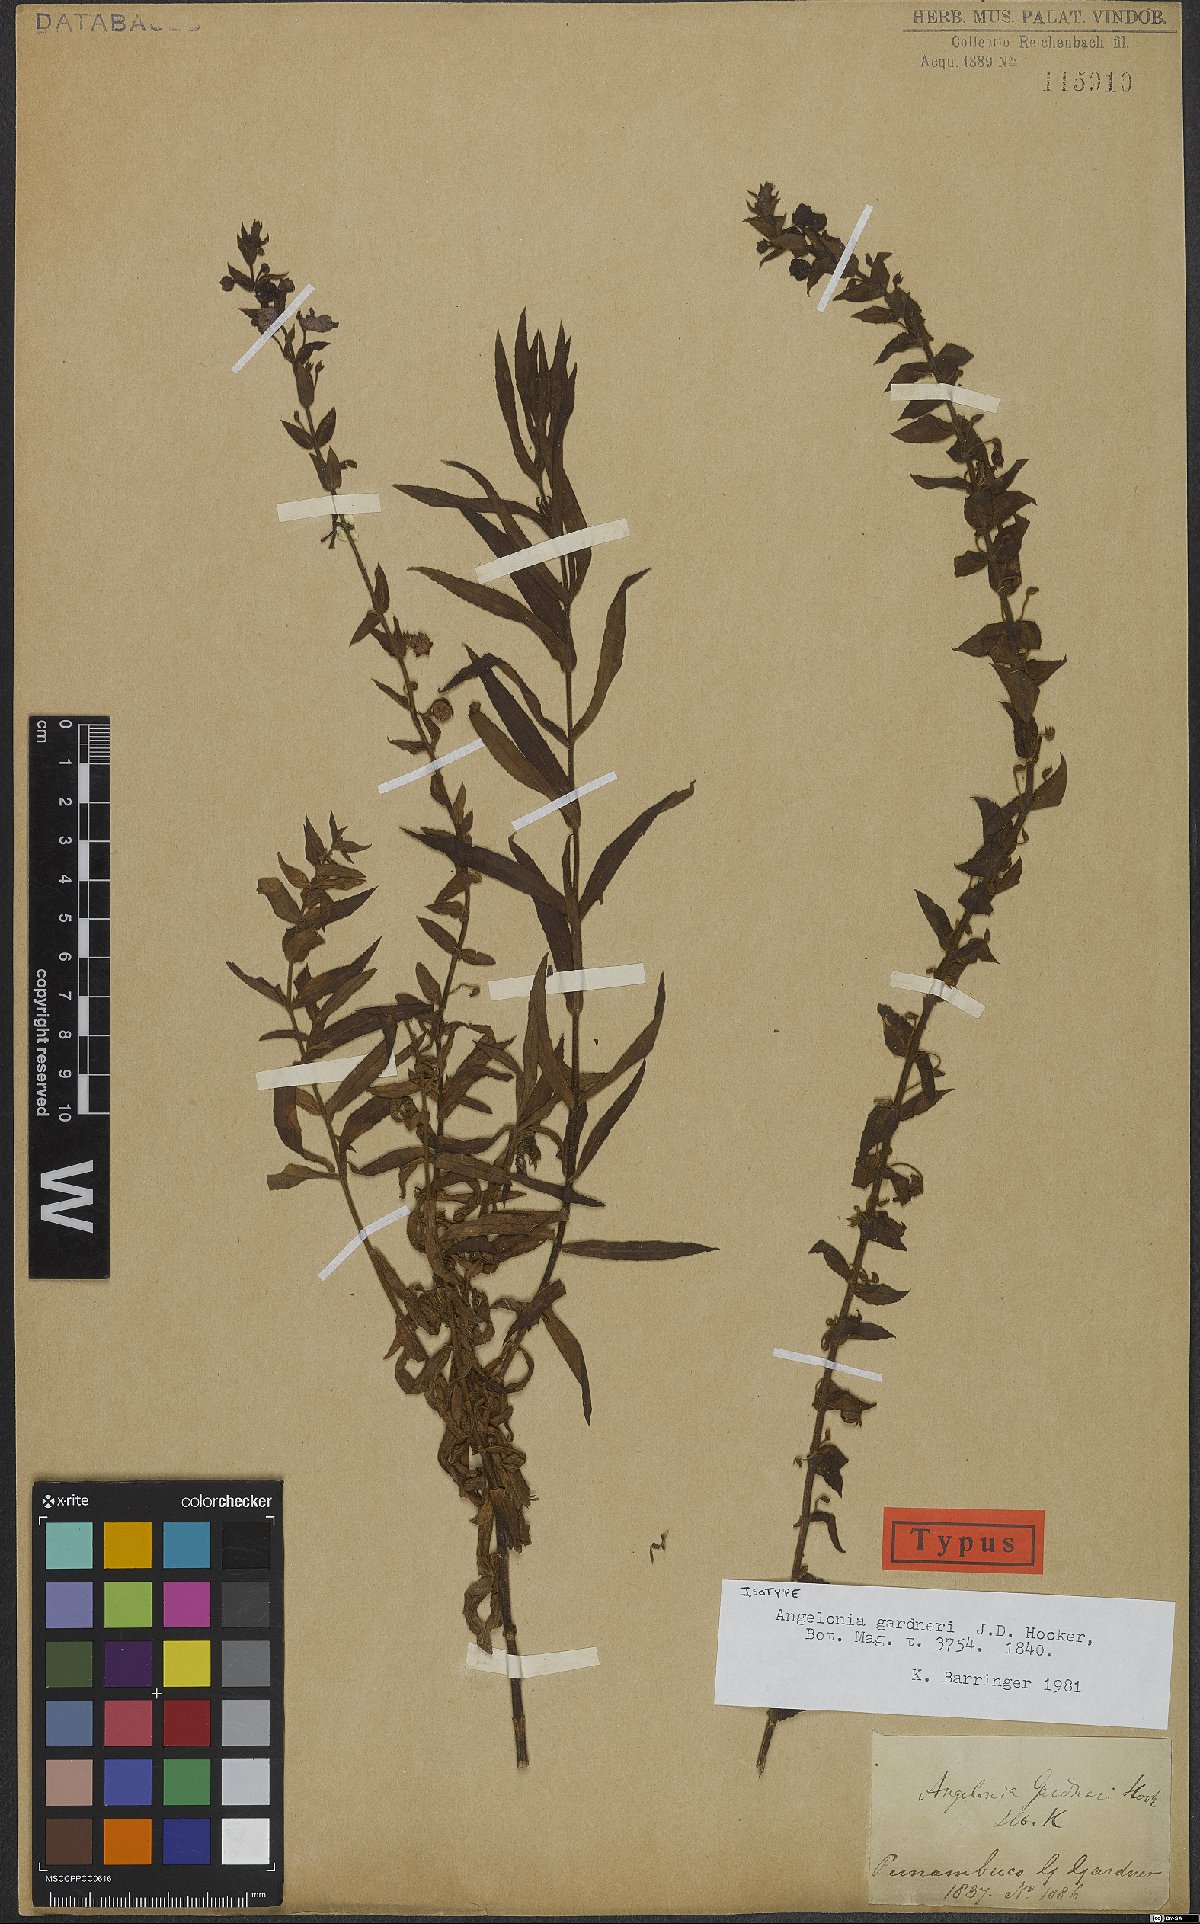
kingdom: Plantae
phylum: Tracheophyta
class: Magnoliopsida
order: Lamiales
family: Plantaginaceae
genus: Angelonia
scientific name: Angelonia gardneri
